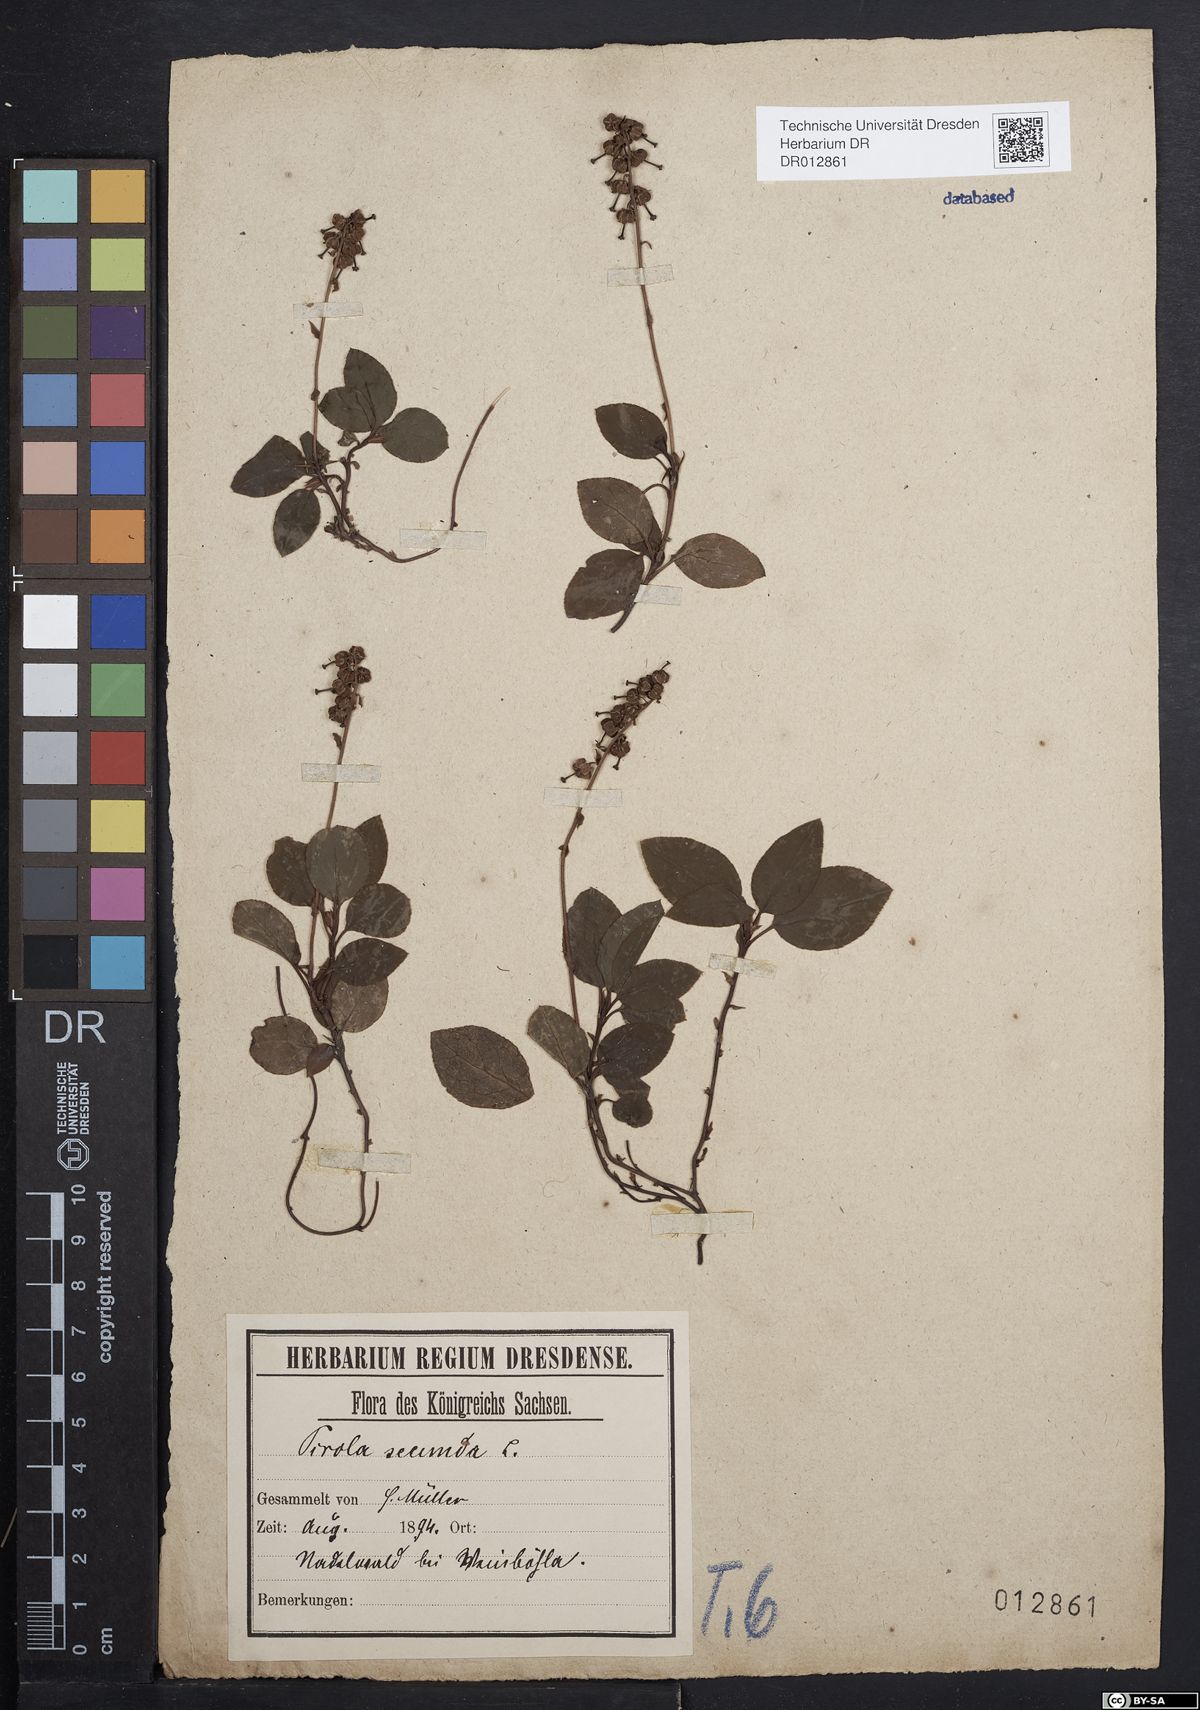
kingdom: Plantae
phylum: Tracheophyta
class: Magnoliopsida
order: Ericales
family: Ericaceae
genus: Orthilia
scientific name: Orthilia secunda
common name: One-sided orthilia
